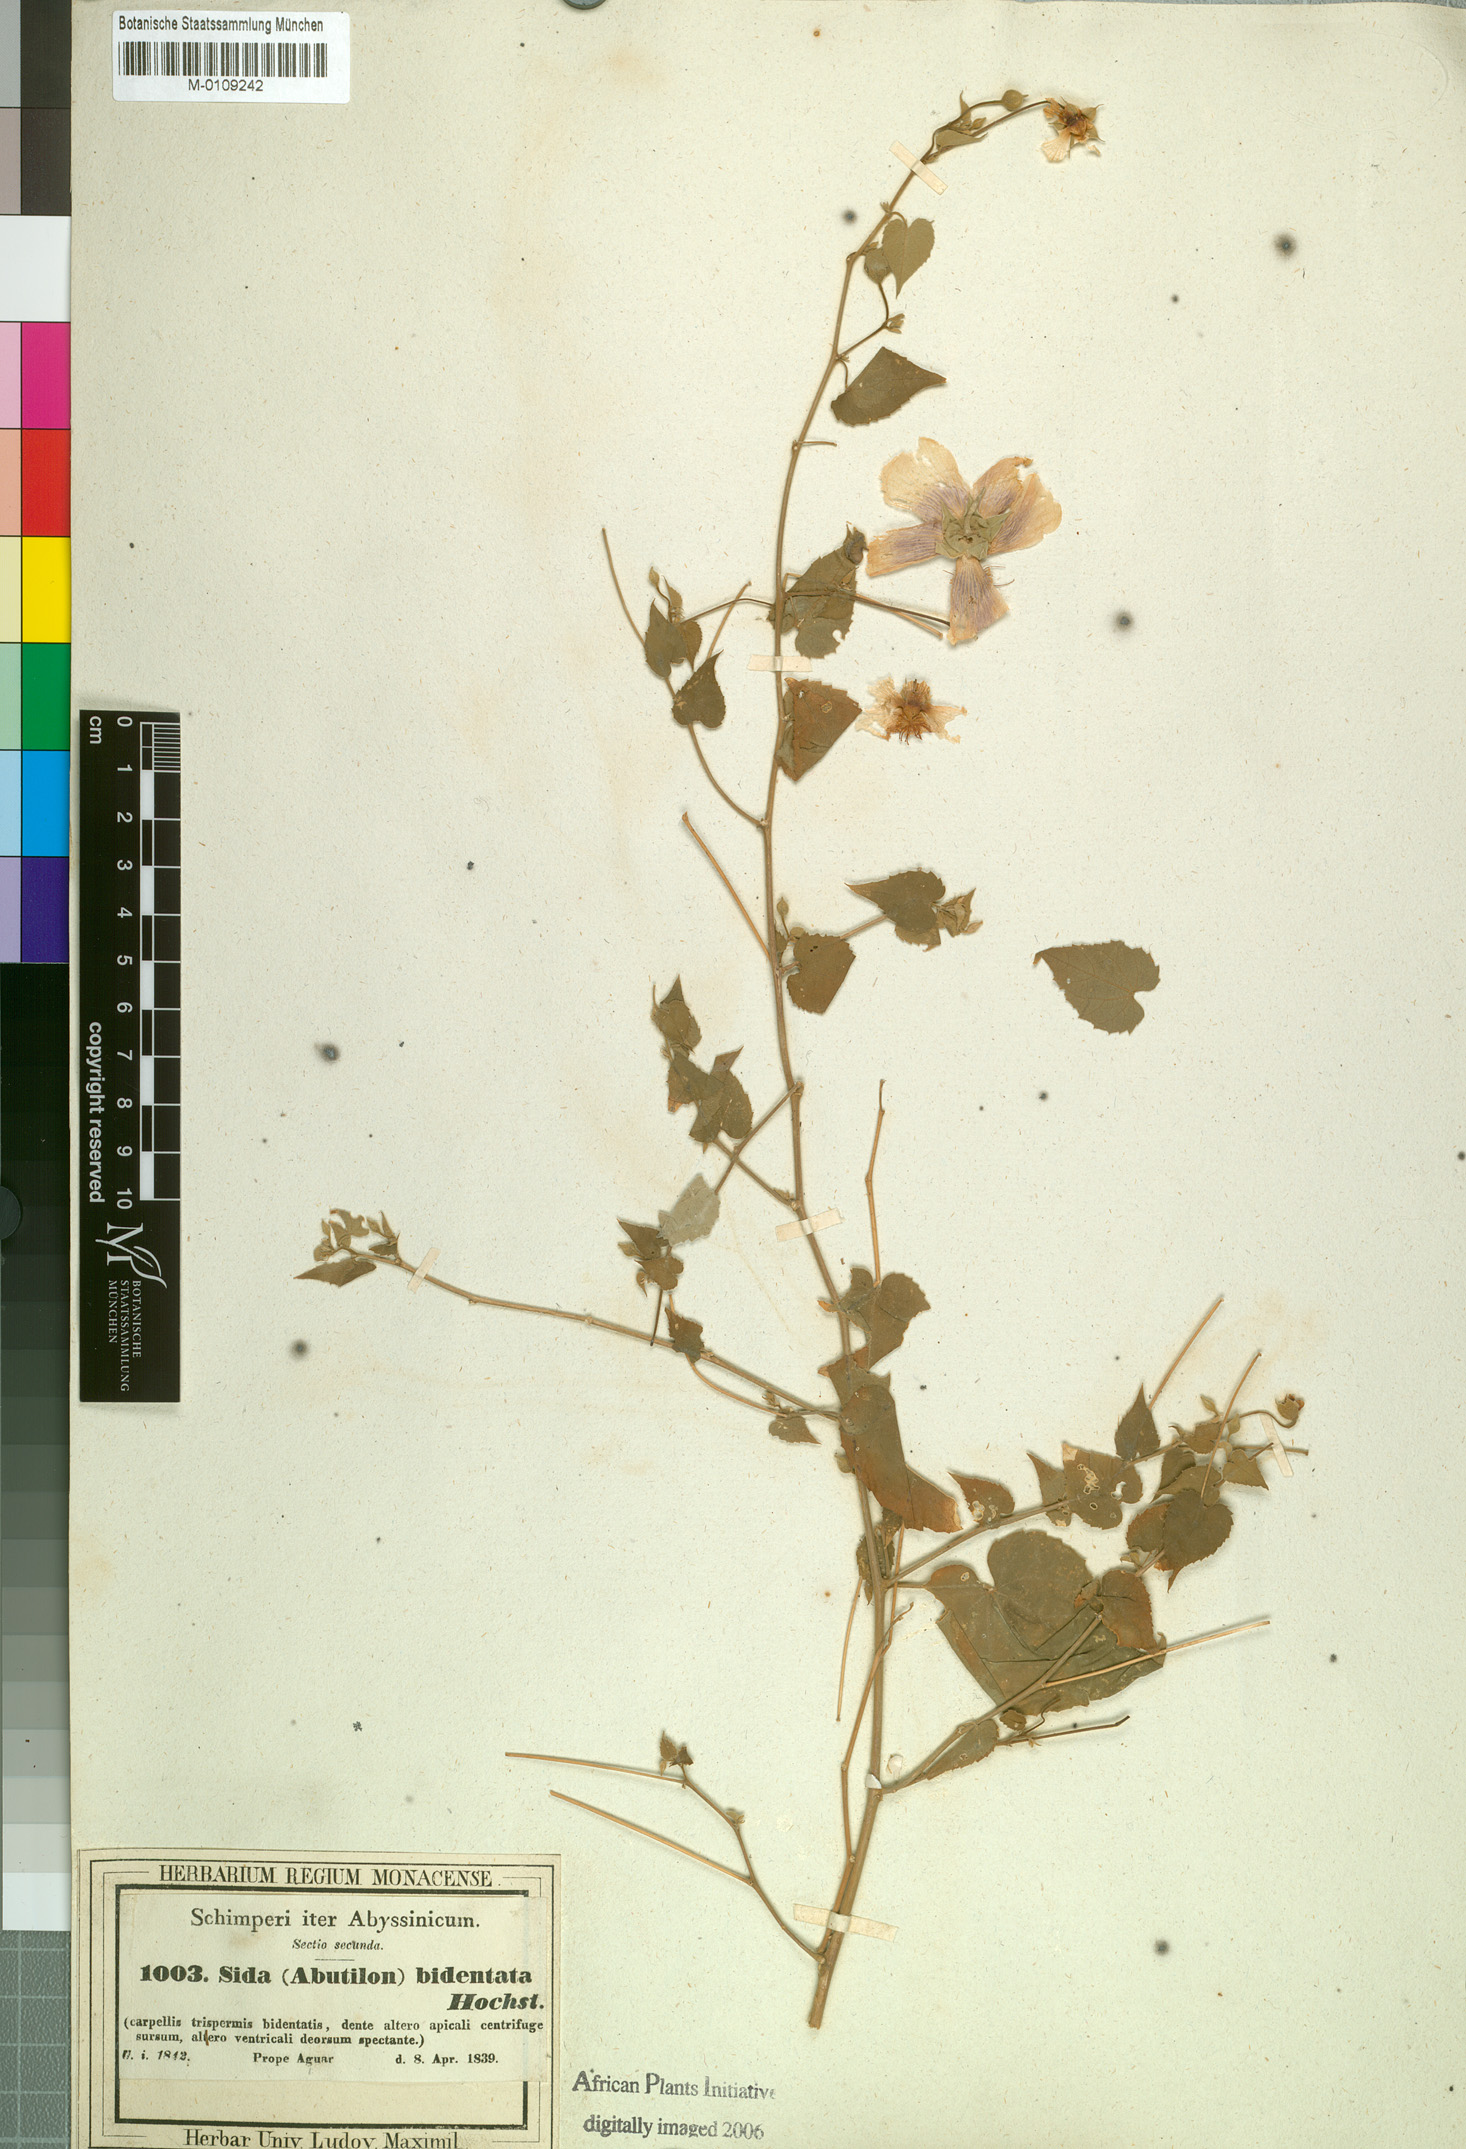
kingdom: Plantae
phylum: Tracheophyta
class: Magnoliopsida
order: Malvales
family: Malvaceae
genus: Abutilon
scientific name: Abutilon bidentatum
